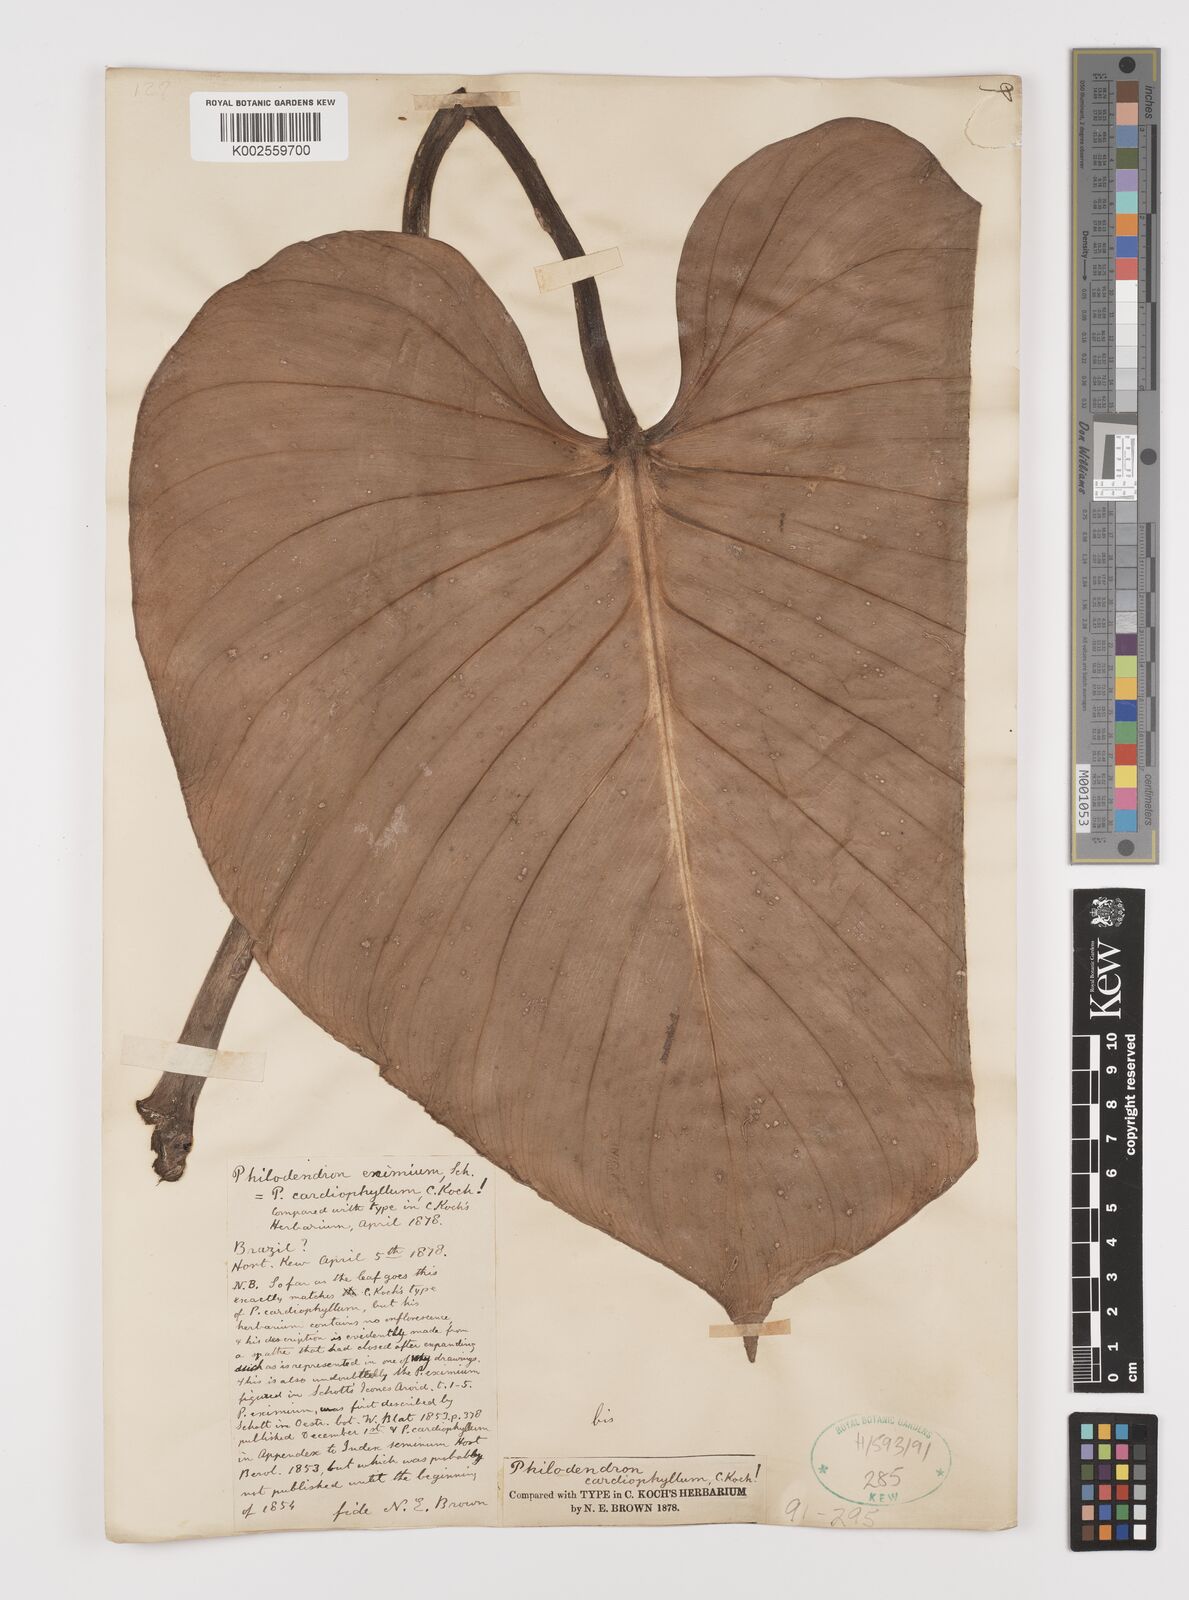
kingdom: Plantae
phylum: Tracheophyta
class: Liliopsida
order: Alismatales
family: Araceae
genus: Philodendron
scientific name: Philodendron eximium
